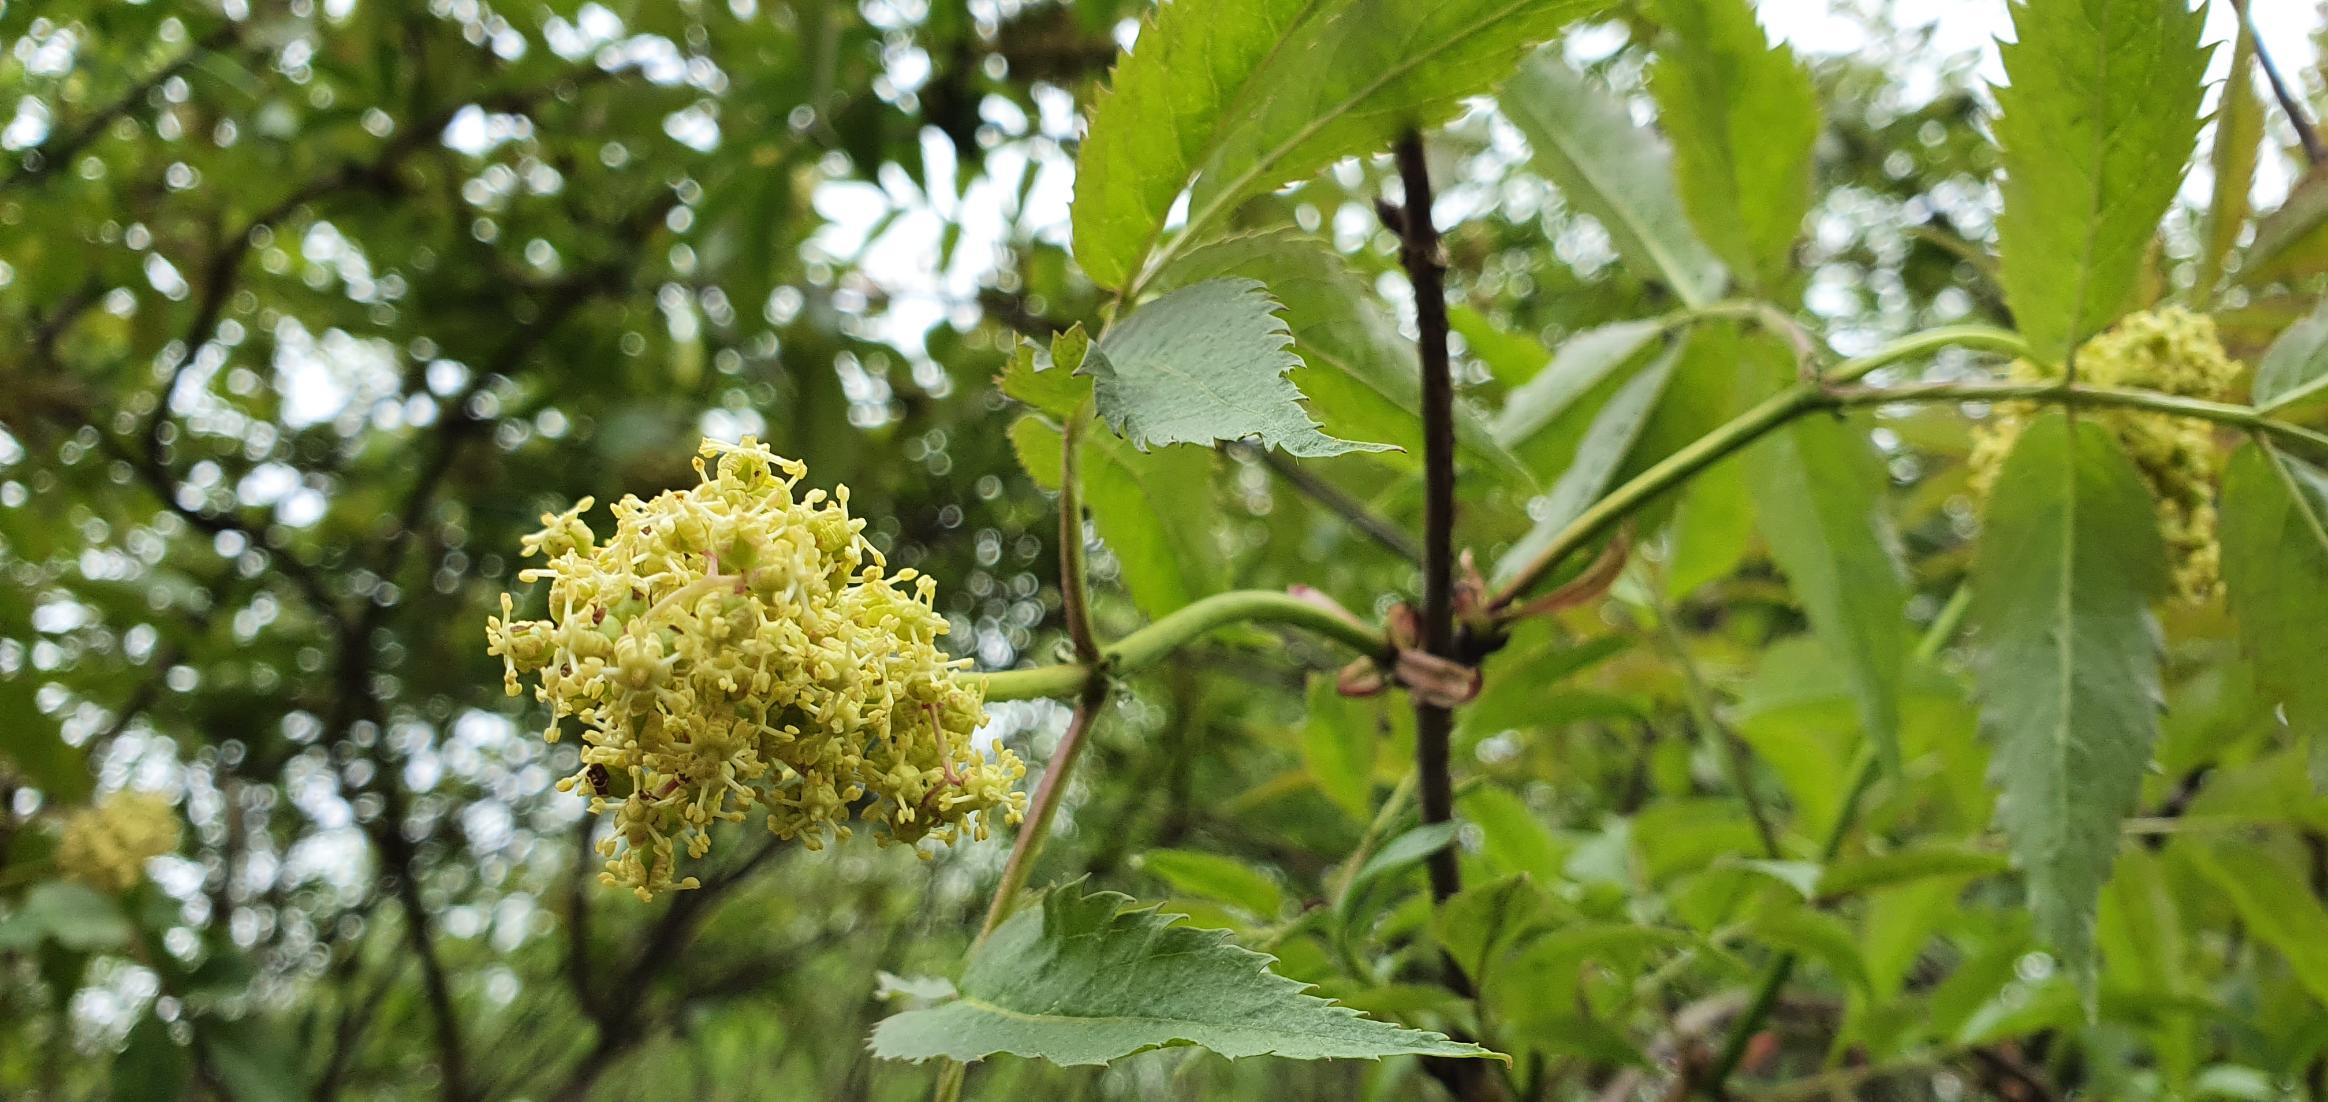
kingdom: Plantae
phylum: Tracheophyta
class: Magnoliopsida
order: Dipsacales
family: Viburnaceae
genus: Sambucus
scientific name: Sambucus racemosa
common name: Drue-hyld
